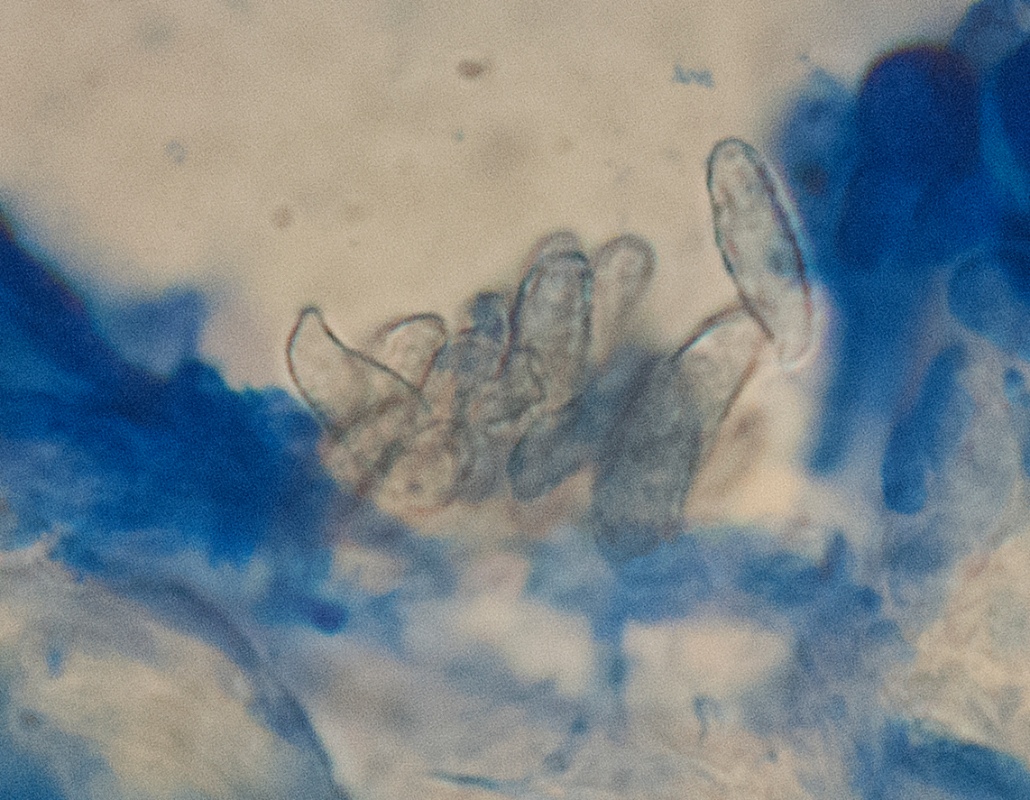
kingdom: Fungi
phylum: Basidiomycota
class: Agaricomycetes
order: Gomphales
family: Gomphaceae
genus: Ramaria
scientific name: Ramaria krieglsteineri
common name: smalsporet koralsvamp
